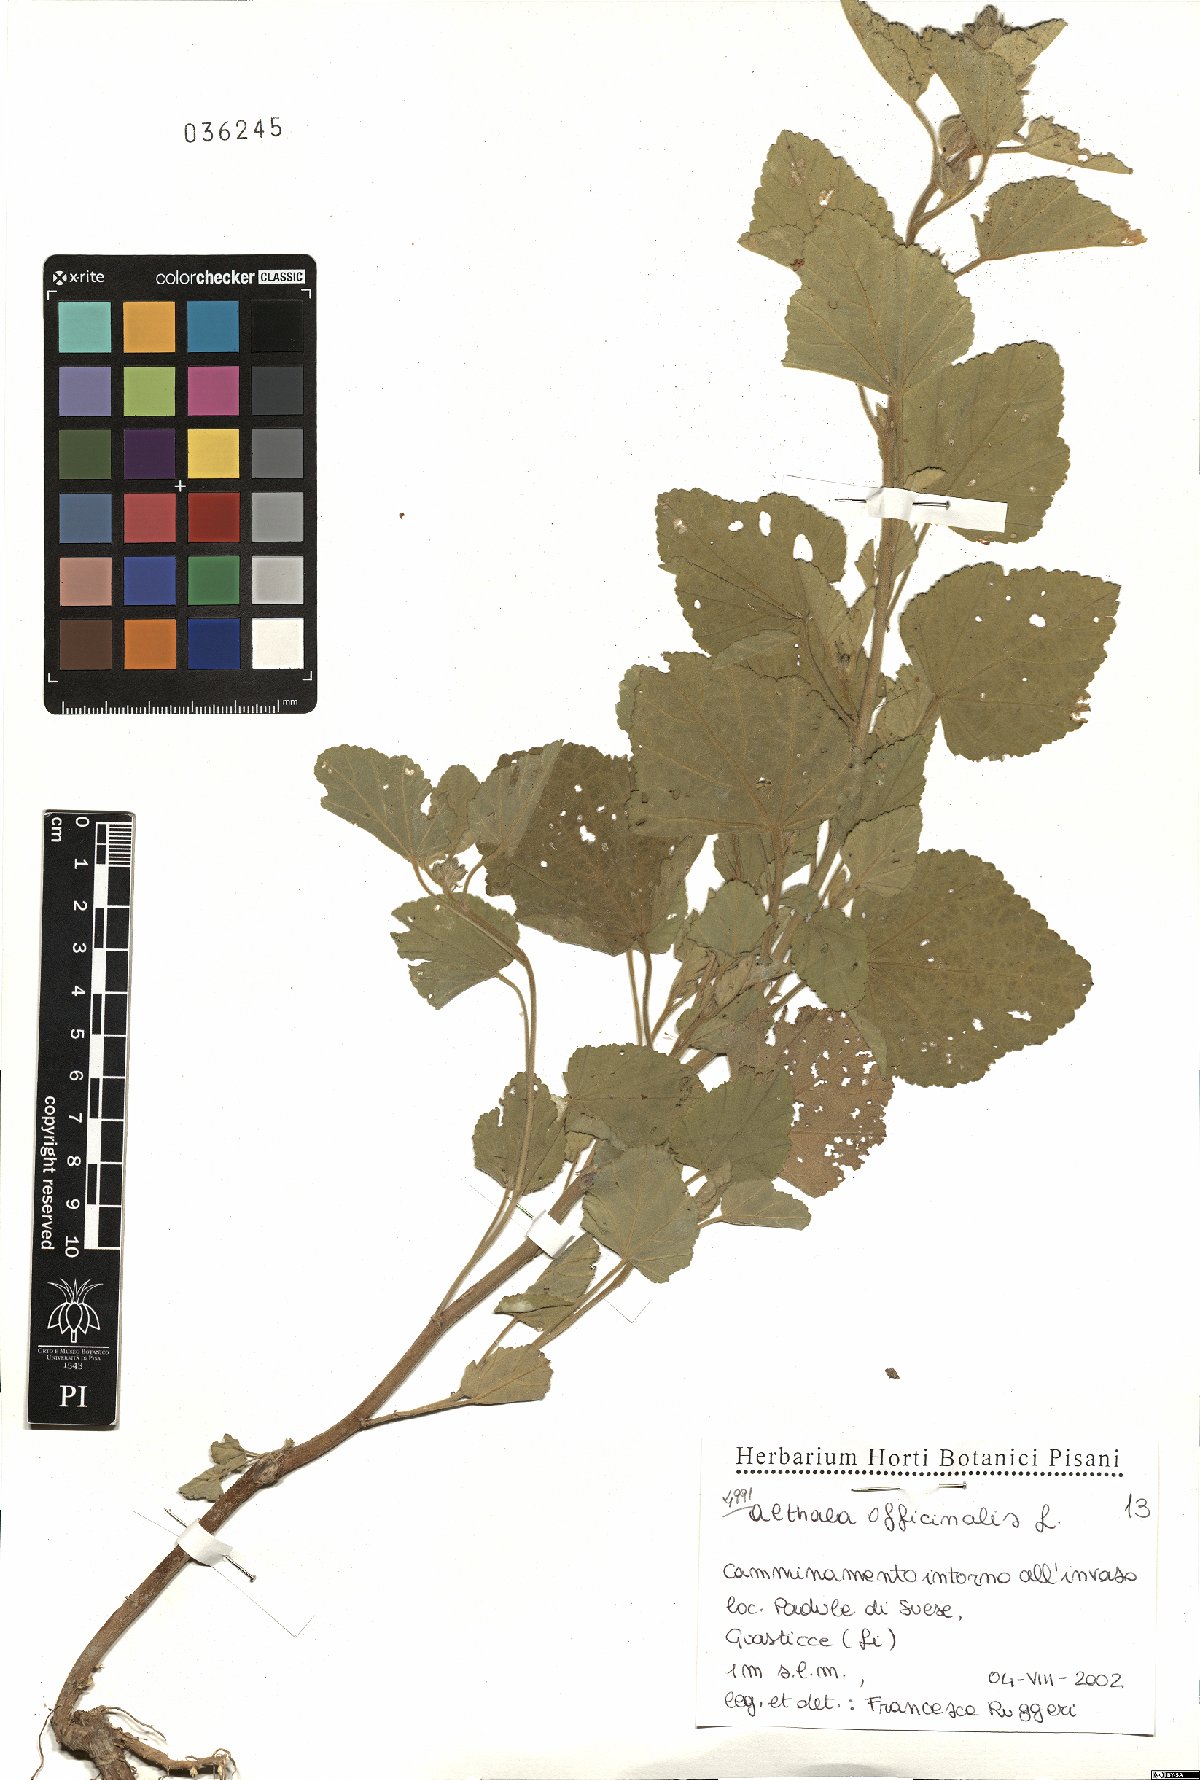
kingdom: Plantae
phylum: Tracheophyta
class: Magnoliopsida
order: Malvales
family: Malvaceae
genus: Althaea
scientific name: Althaea officinalis
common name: Marsh-mallow
